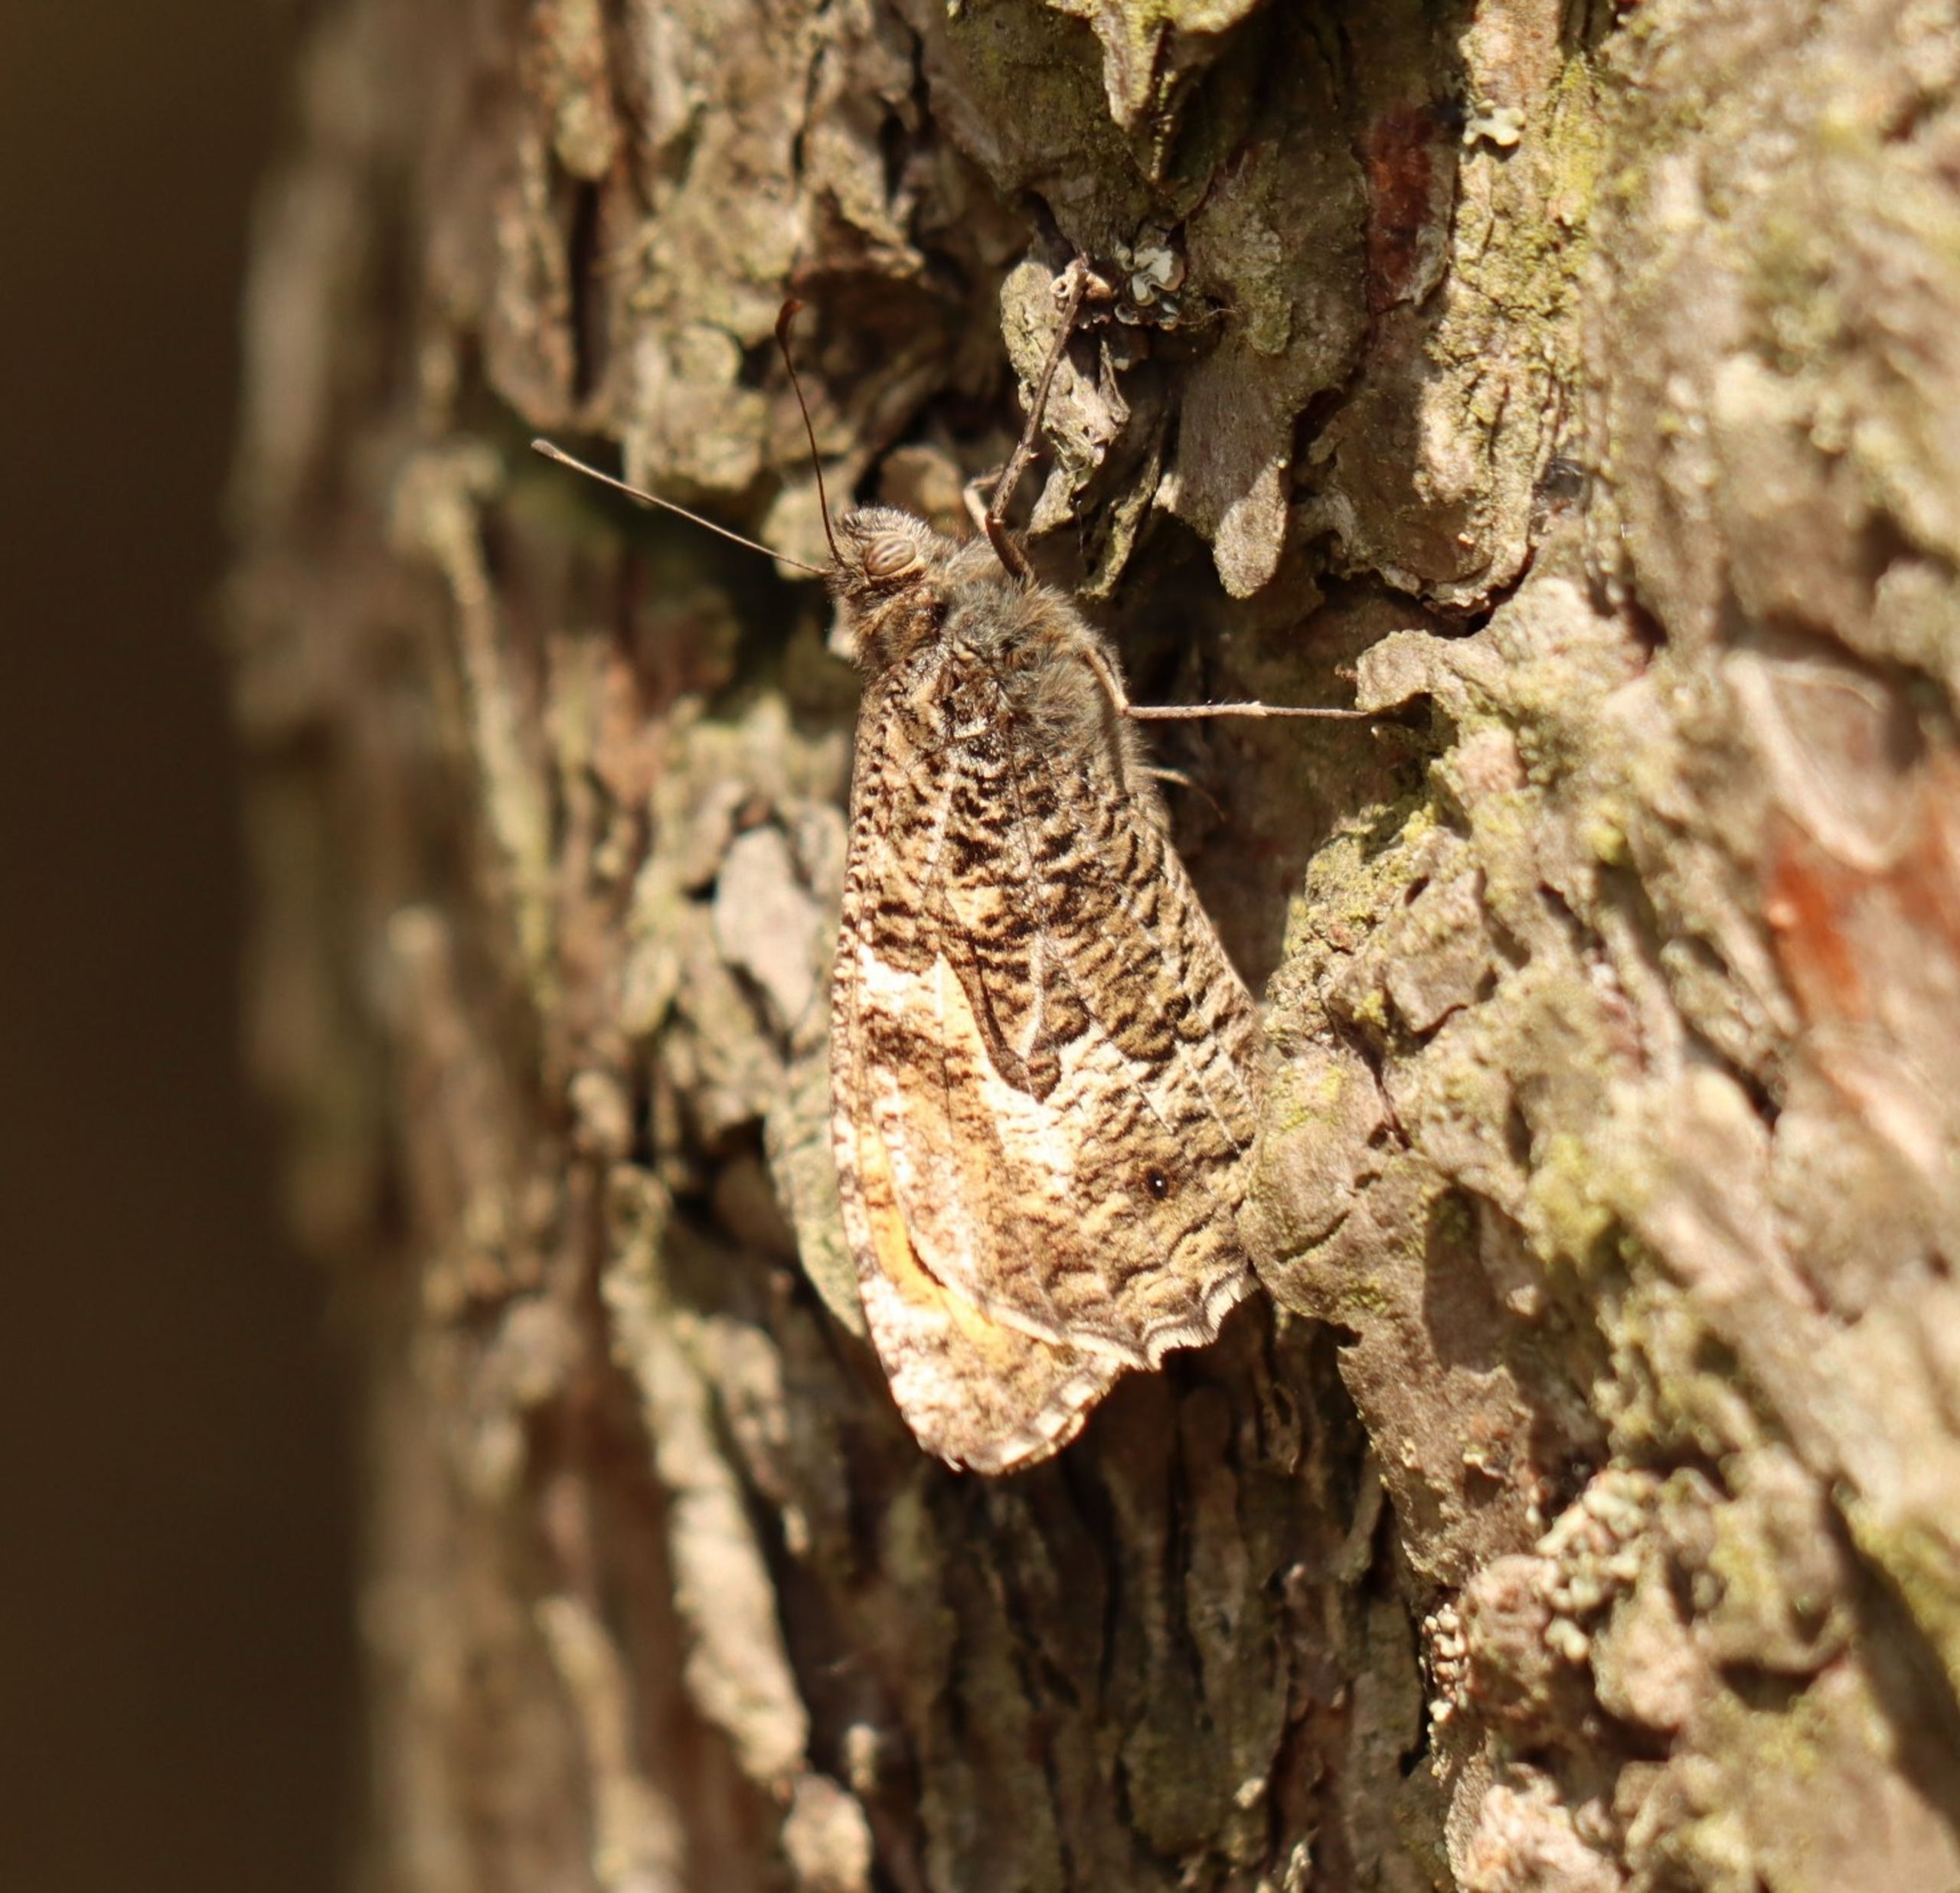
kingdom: Animalia
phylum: Arthropoda
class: Insecta
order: Lepidoptera
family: Nymphalidae
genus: Hipparchia
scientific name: Hipparchia semele
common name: Sandrandøje
